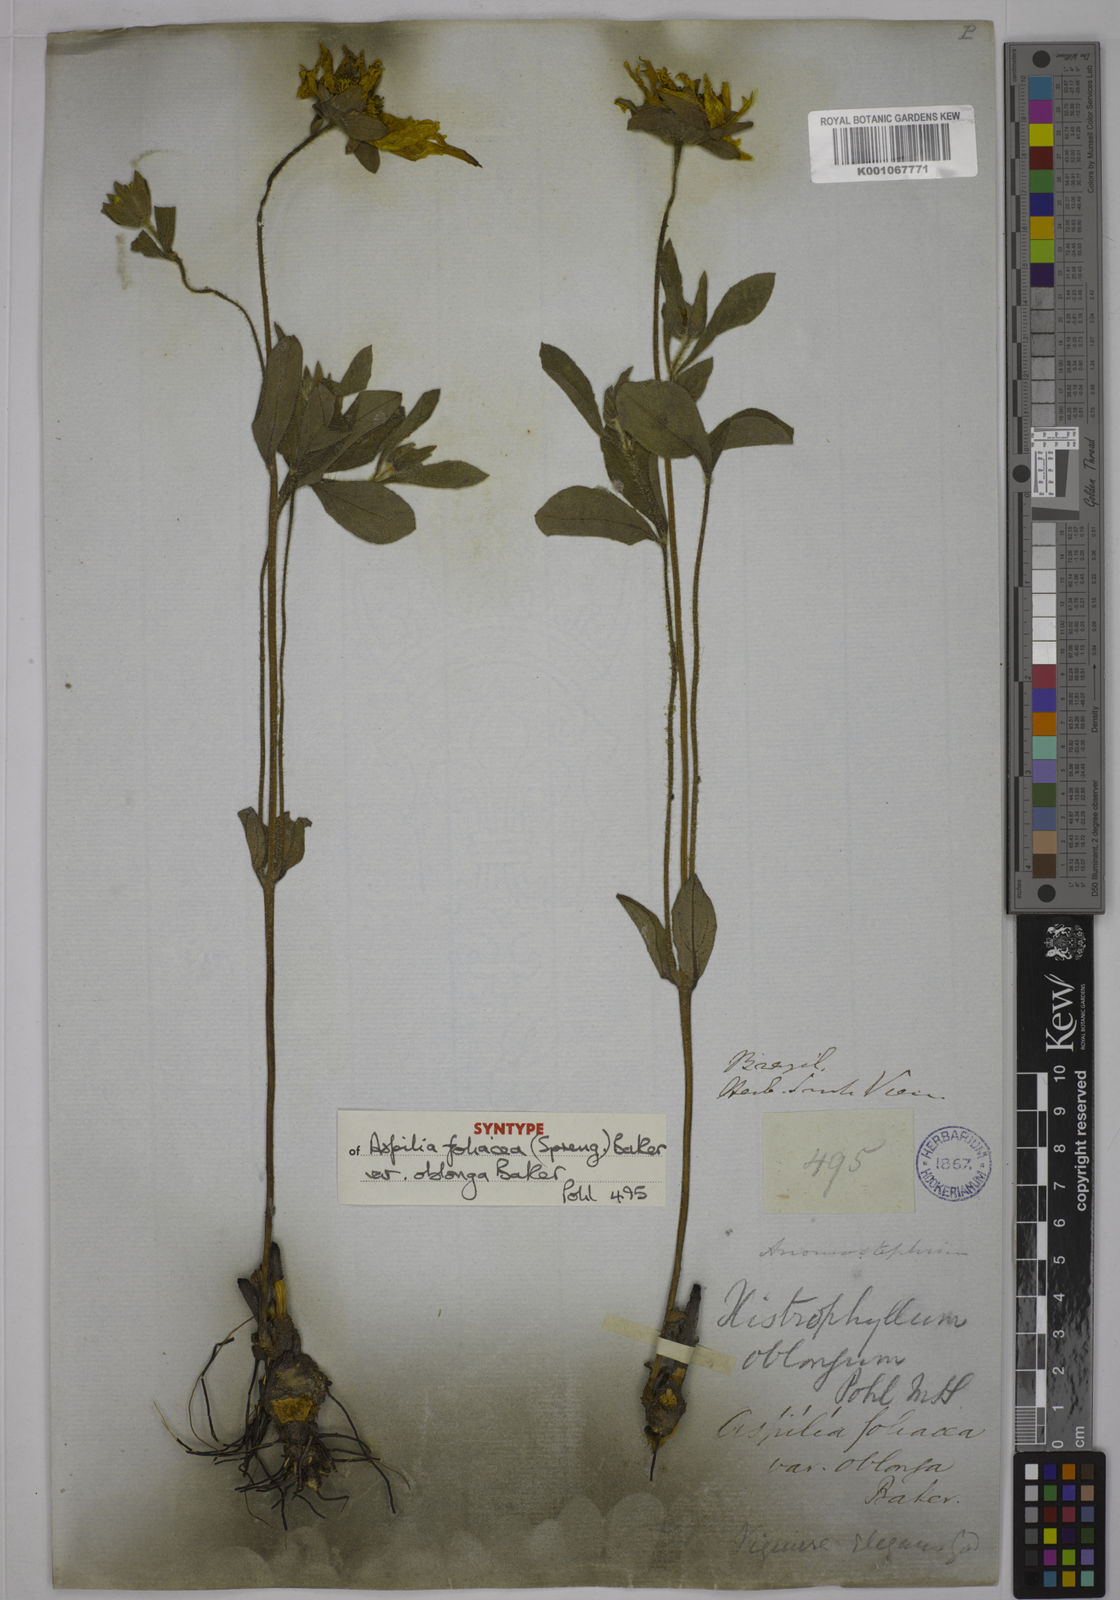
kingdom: Plantae
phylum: Tracheophyta
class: Magnoliopsida
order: Asterales
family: Asteraceae
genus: Wedelia
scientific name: Wedelia foliacea
